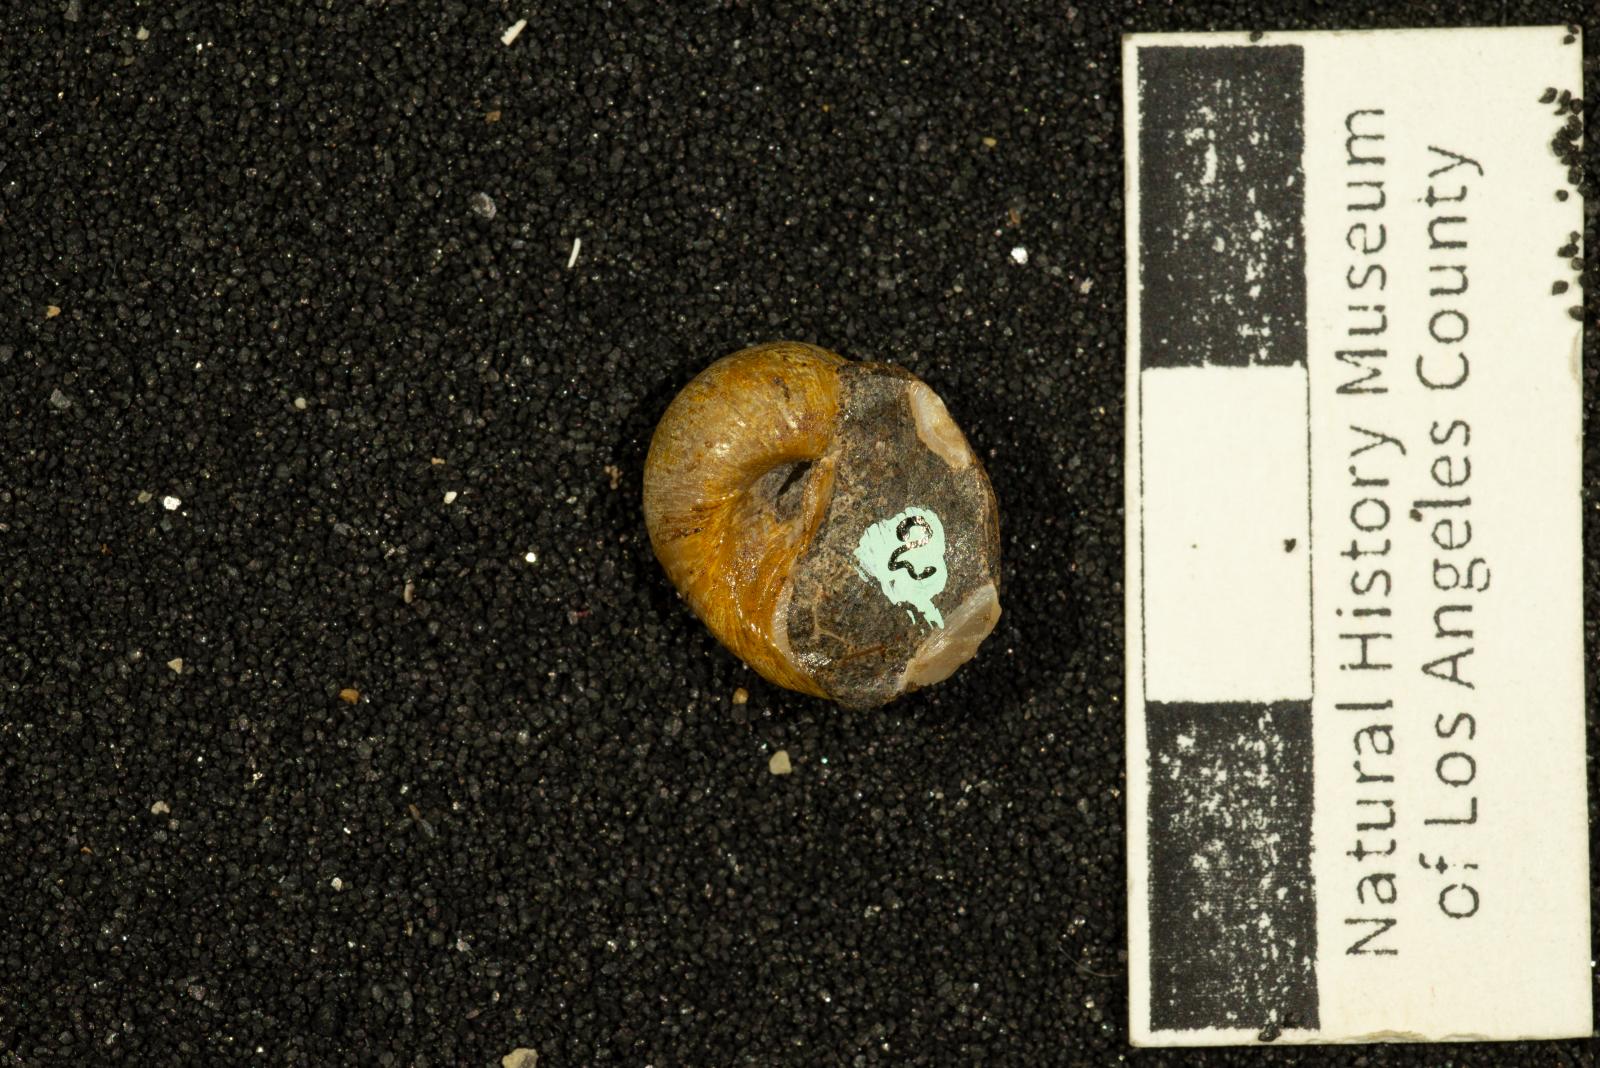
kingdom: Animalia
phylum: Mollusca
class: Gastropoda
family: Gyrodidae
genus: Gyrodes
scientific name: Gyrodes quercus
